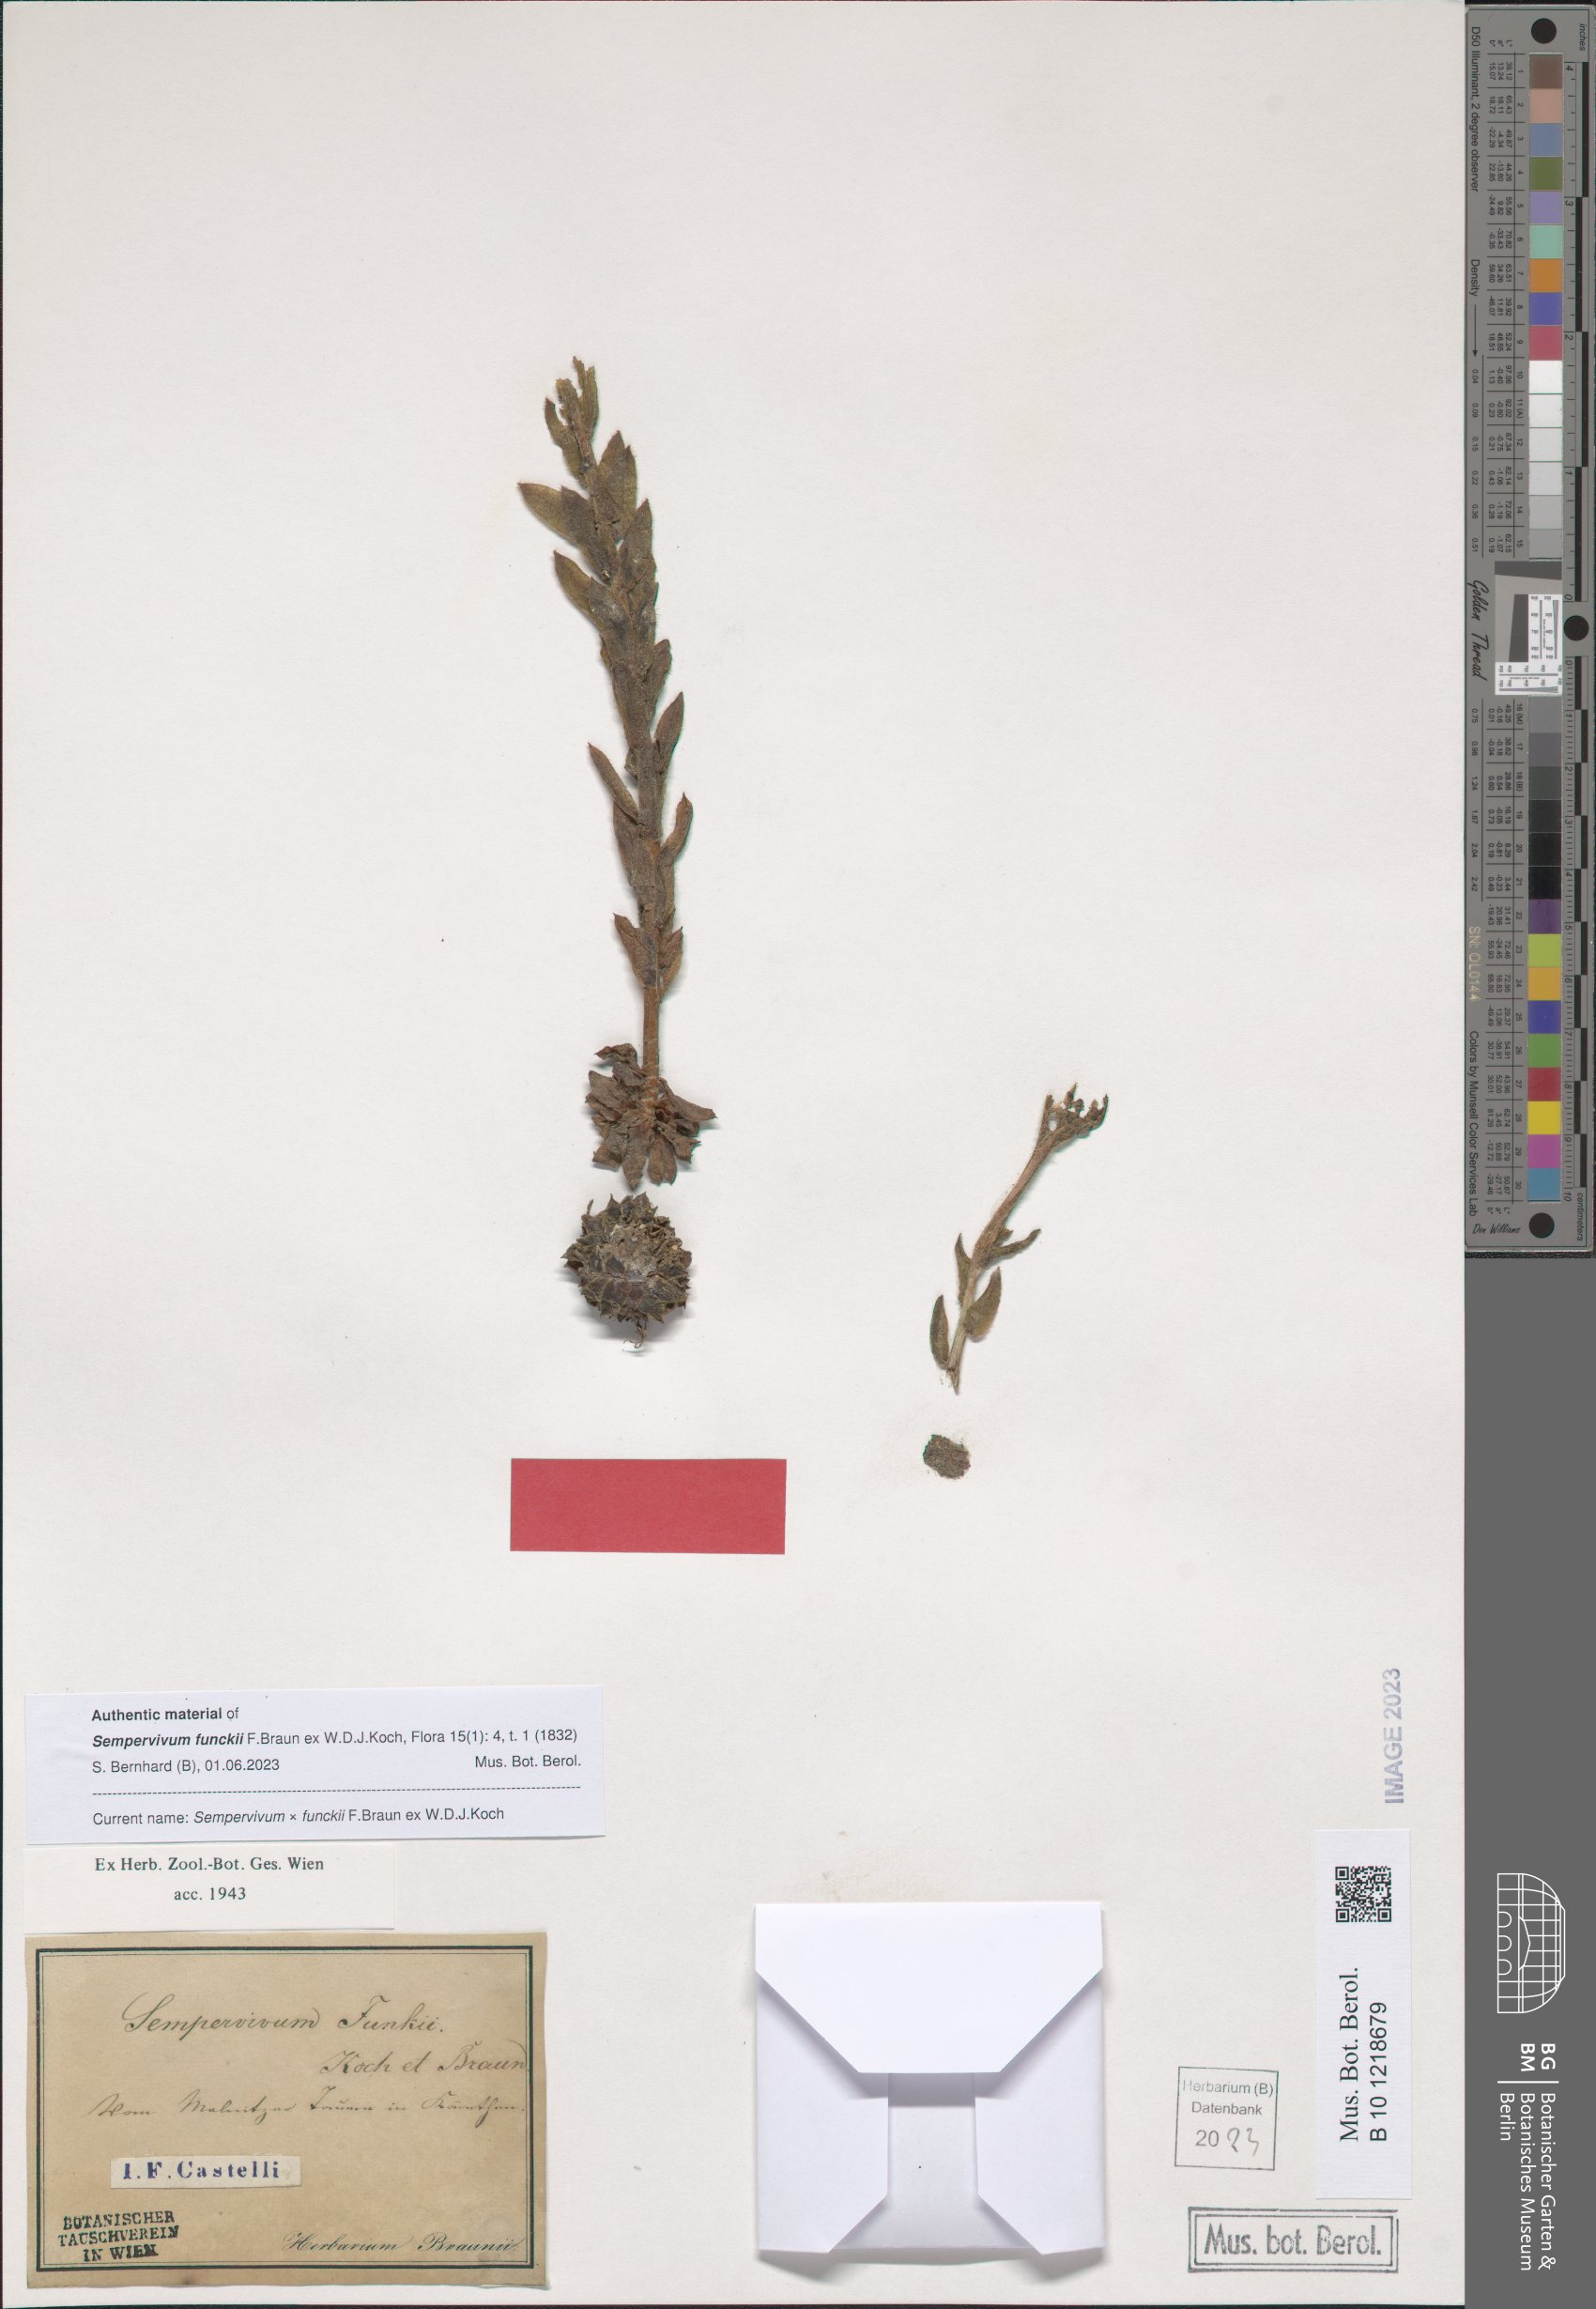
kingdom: Plantae
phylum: Tracheophyta
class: Magnoliopsida
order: Saxifragales
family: Crassulaceae
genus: Sempervivum
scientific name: Sempervivum funckii
